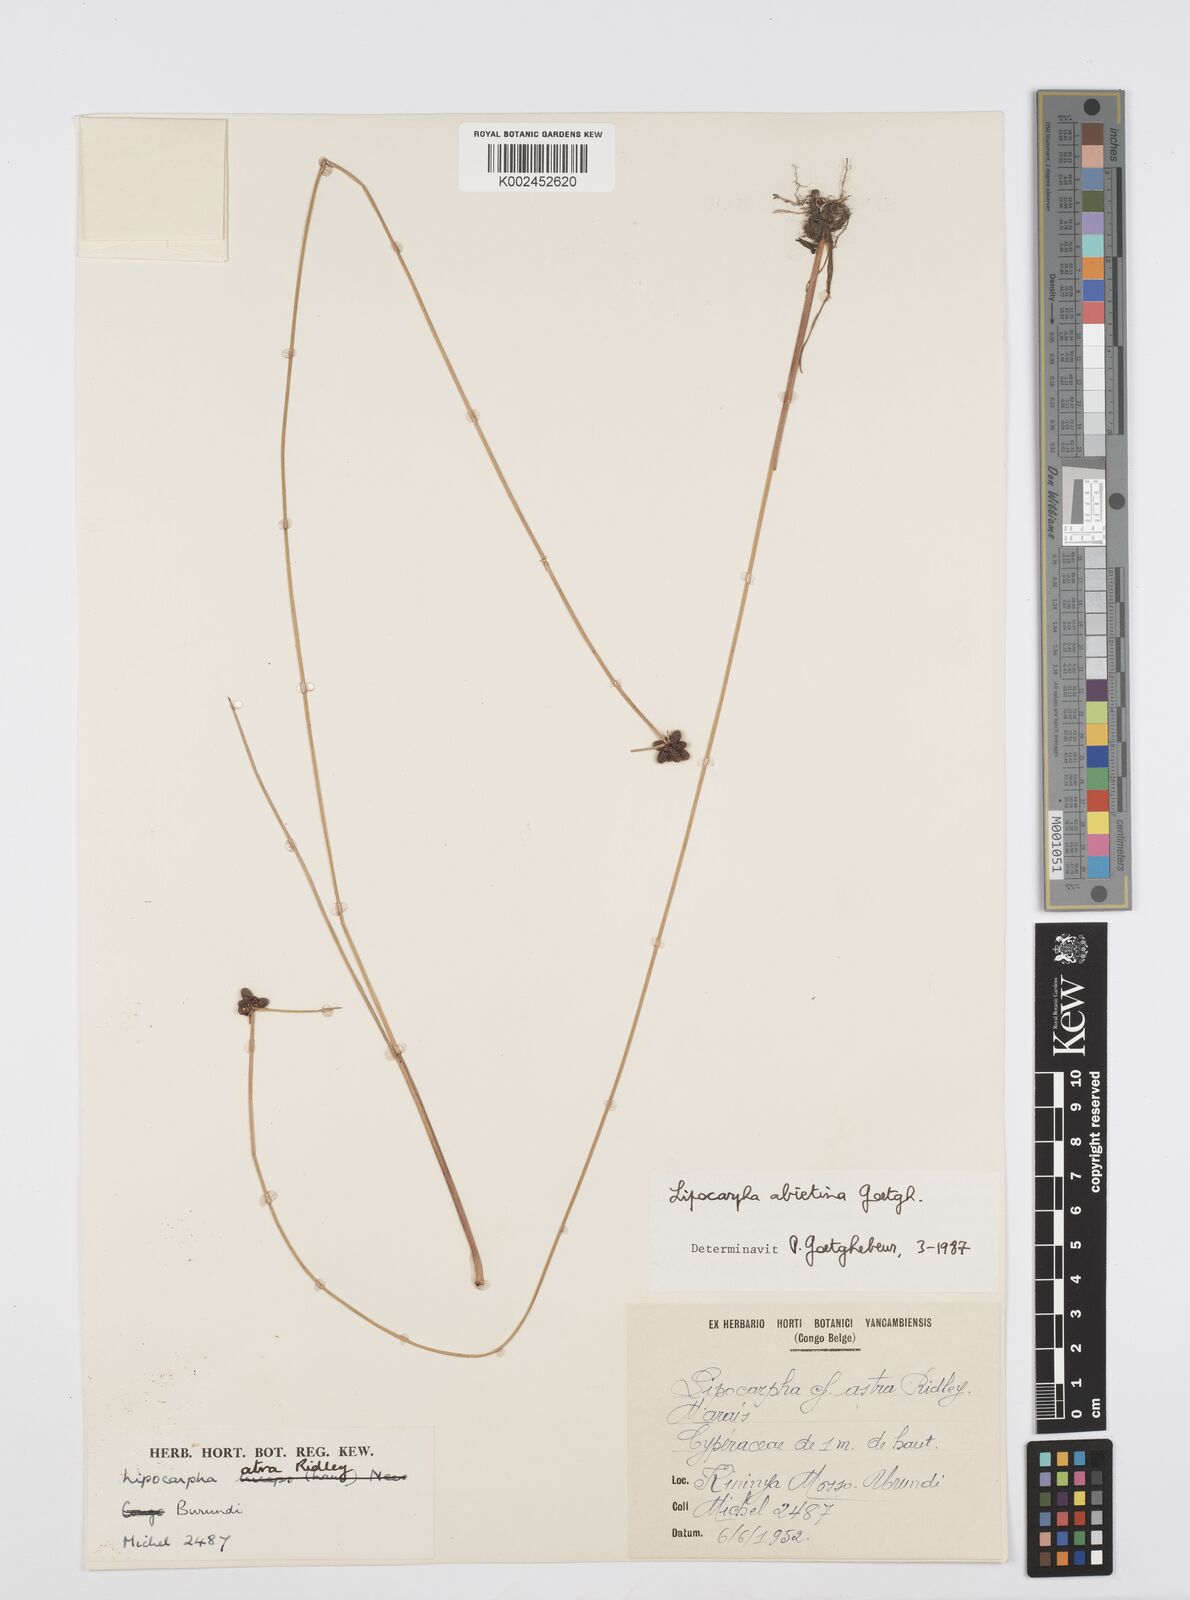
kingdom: Plantae
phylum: Tracheophyta
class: Liliopsida
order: Poales
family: Cyperaceae
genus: Cyperus
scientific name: Cyperus lipoater
